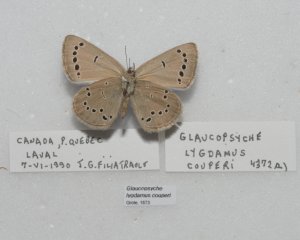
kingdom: Animalia
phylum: Arthropoda
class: Insecta
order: Lepidoptera
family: Lycaenidae
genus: Glaucopsyche
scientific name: Glaucopsyche lygdamus
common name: Silvery Blue
